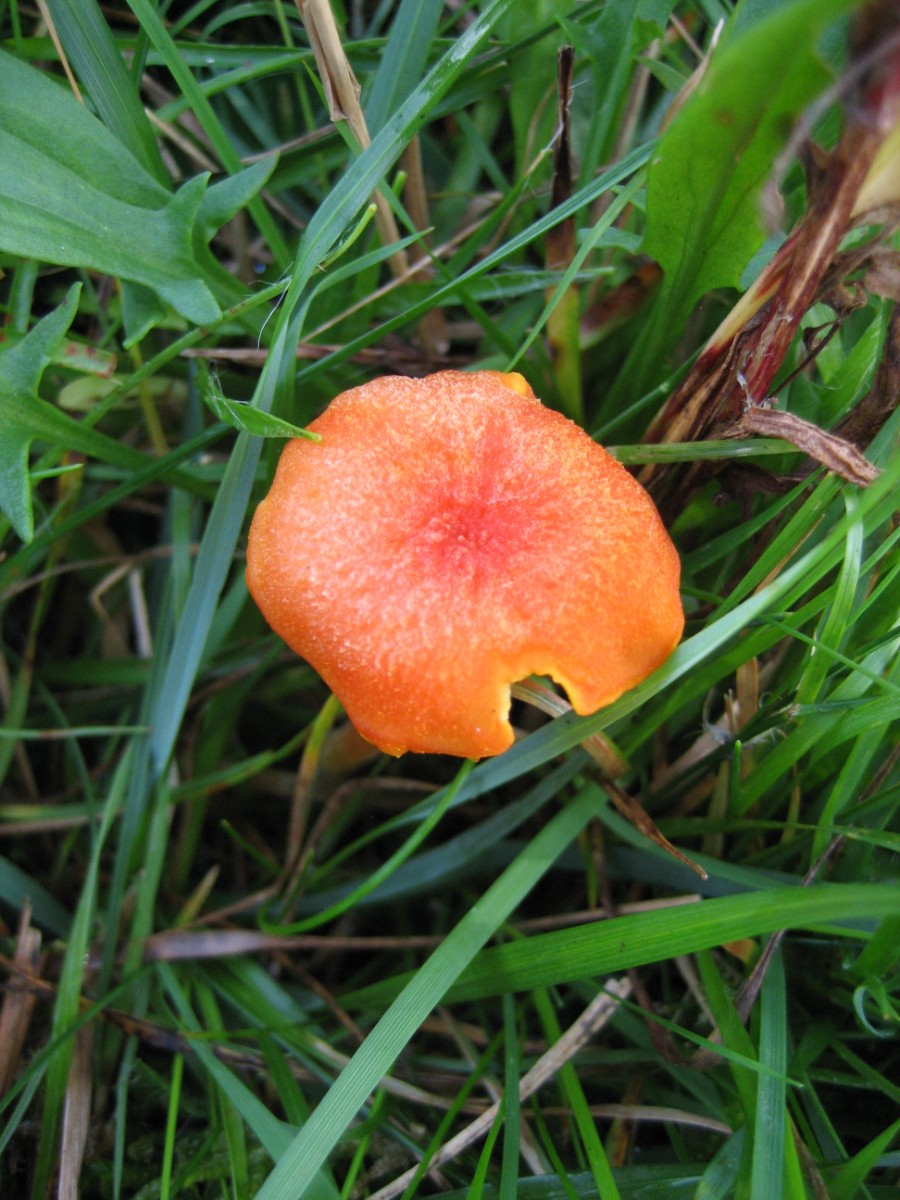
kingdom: Fungi
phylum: Basidiomycota
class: Agaricomycetes
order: Agaricales
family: Hygrophoraceae
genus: Hygrocybe
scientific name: Hygrocybe cantharellus
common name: kantarel-vokshat
